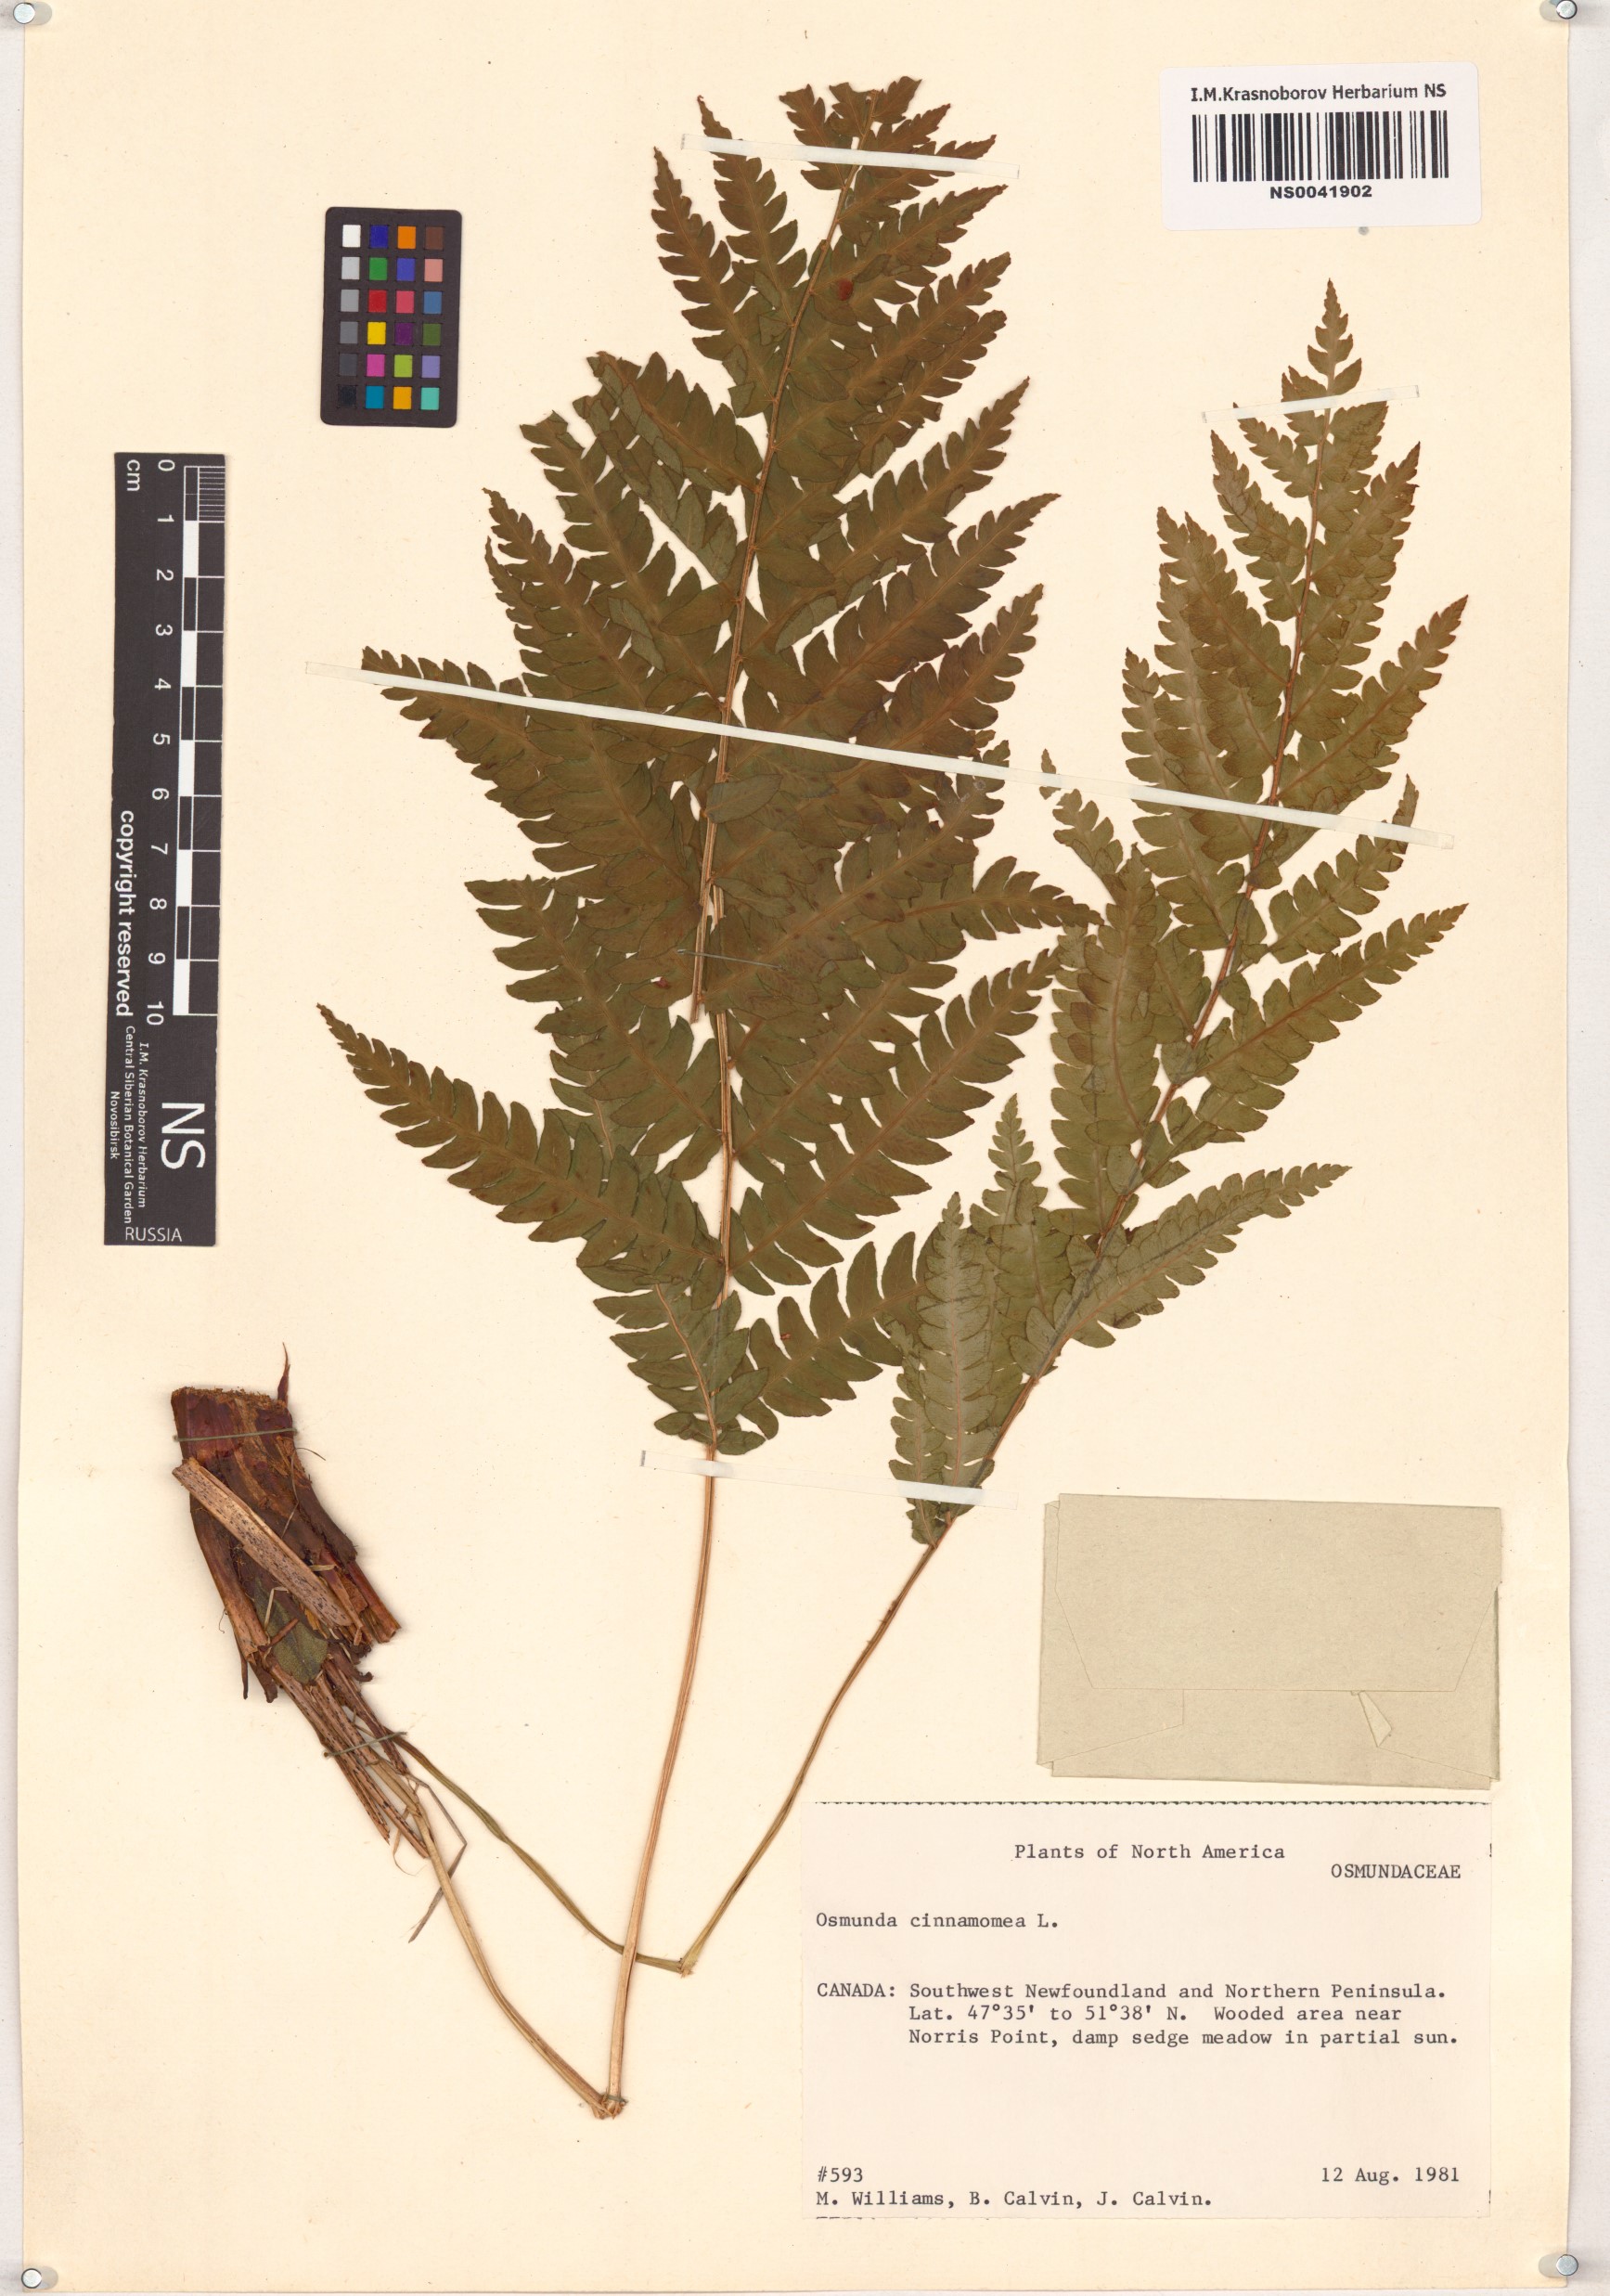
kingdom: Plantae
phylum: Tracheophyta
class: Polypodiopsida
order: Osmundales
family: Osmundaceae
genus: Osmundastrum
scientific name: Osmundastrum cinnamomeum
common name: Cinnamon fern
